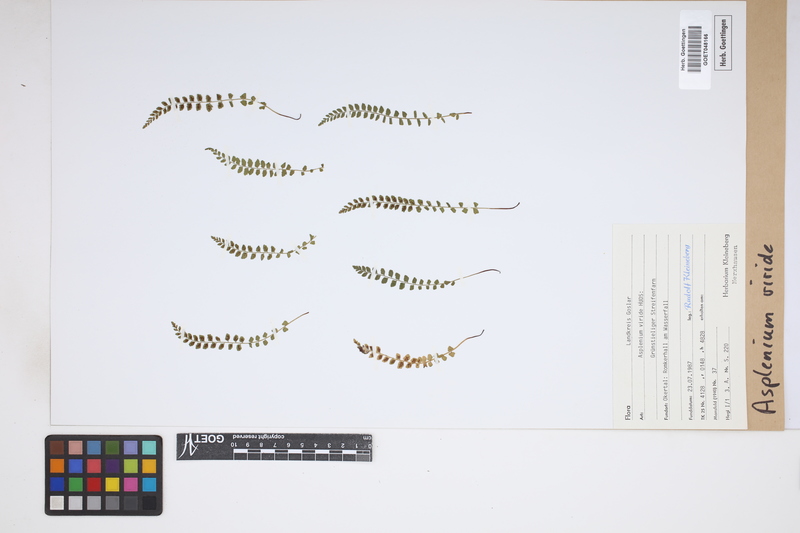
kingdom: Plantae
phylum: Tracheophyta
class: Polypodiopsida
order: Polypodiales
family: Aspleniaceae
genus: Asplenium
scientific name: Asplenium viride
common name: Green spleenwort
